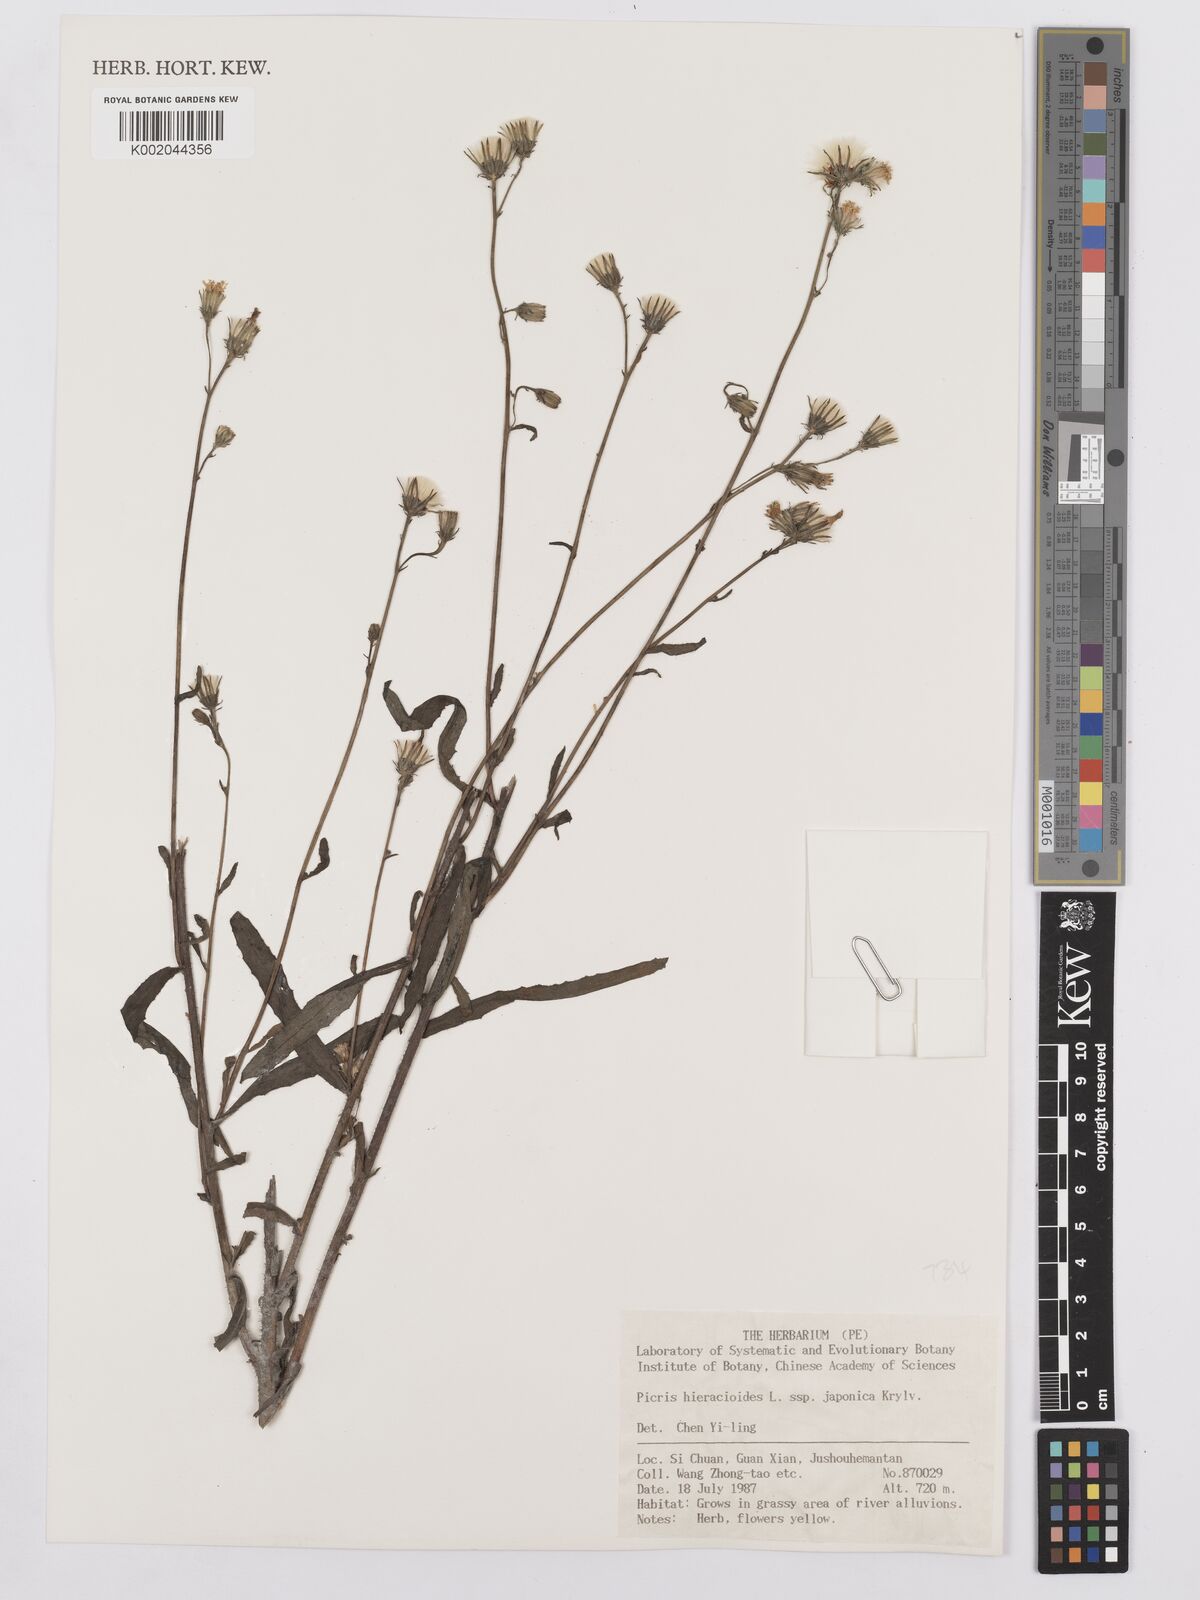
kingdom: Plantae
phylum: Tracheophyta
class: Magnoliopsida
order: Asterales
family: Asteraceae
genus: Picris
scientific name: Picris hieracioides
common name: Hawkweed oxtongue
